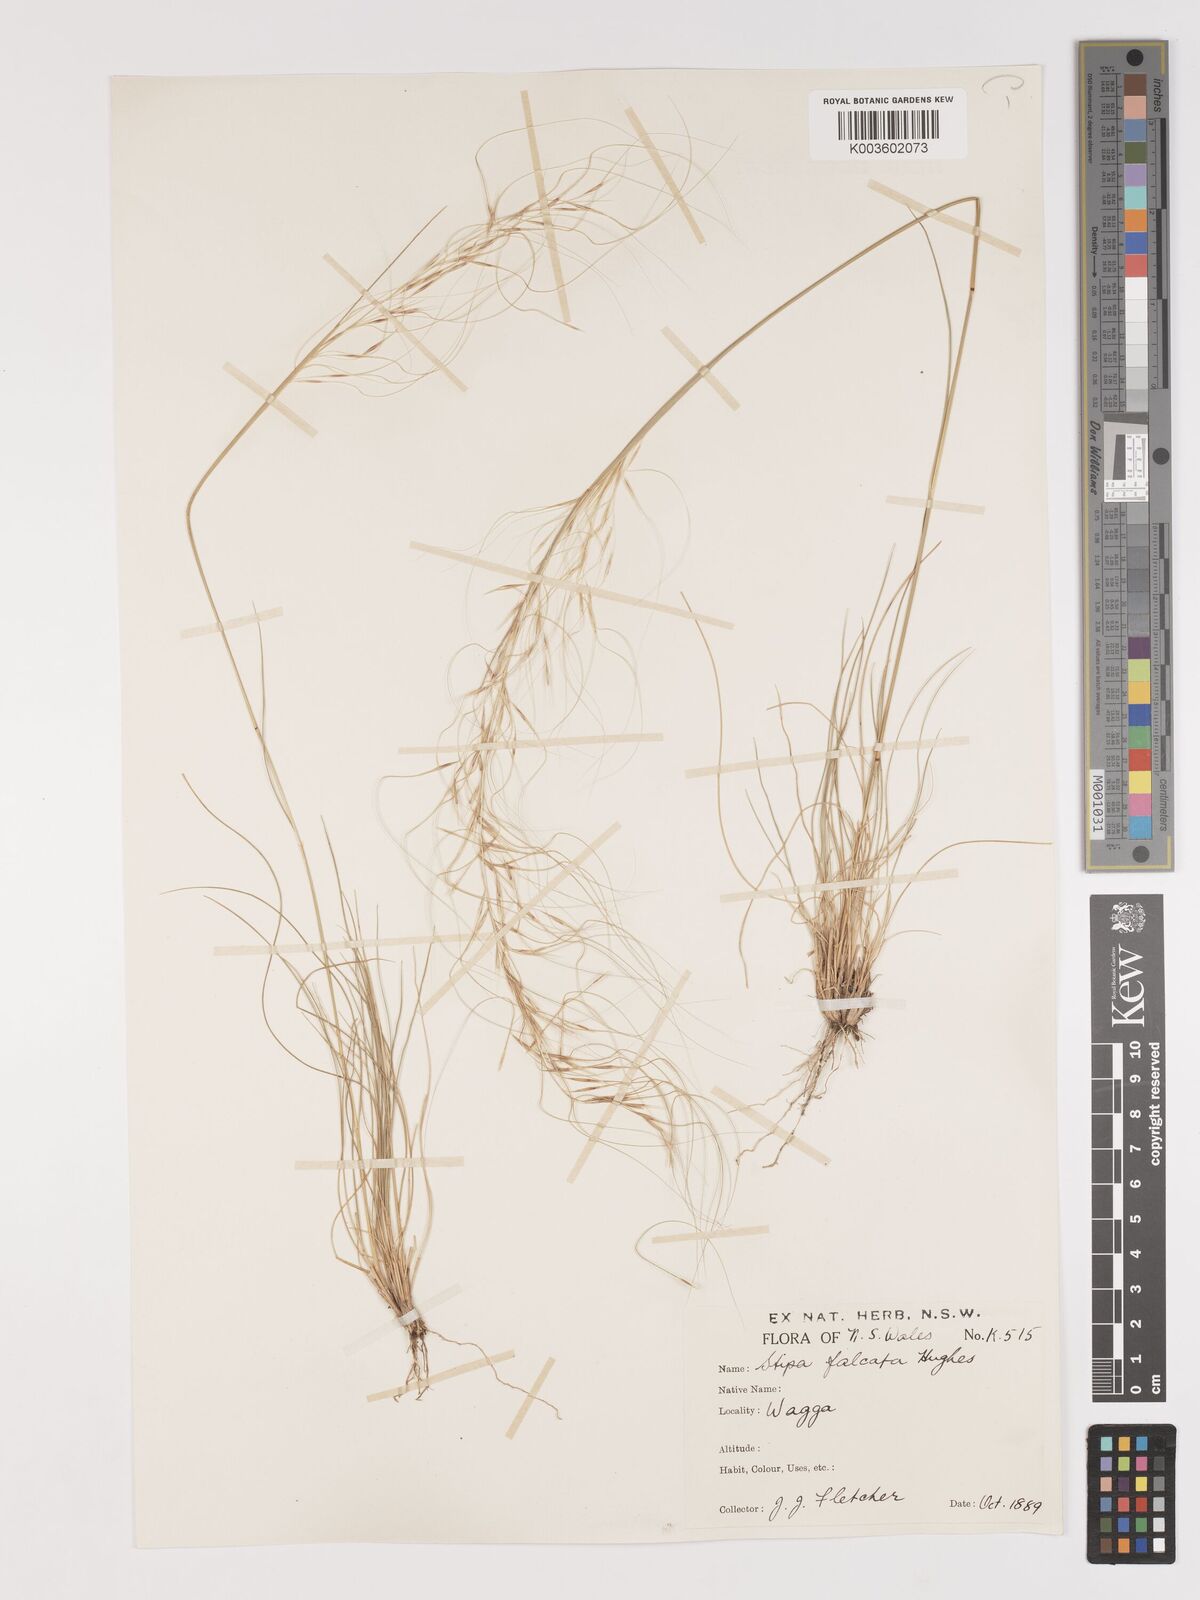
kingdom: Plantae
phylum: Tracheophyta
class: Liliopsida
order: Poales
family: Poaceae
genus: Austrostipa
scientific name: Austrostipa scabra
